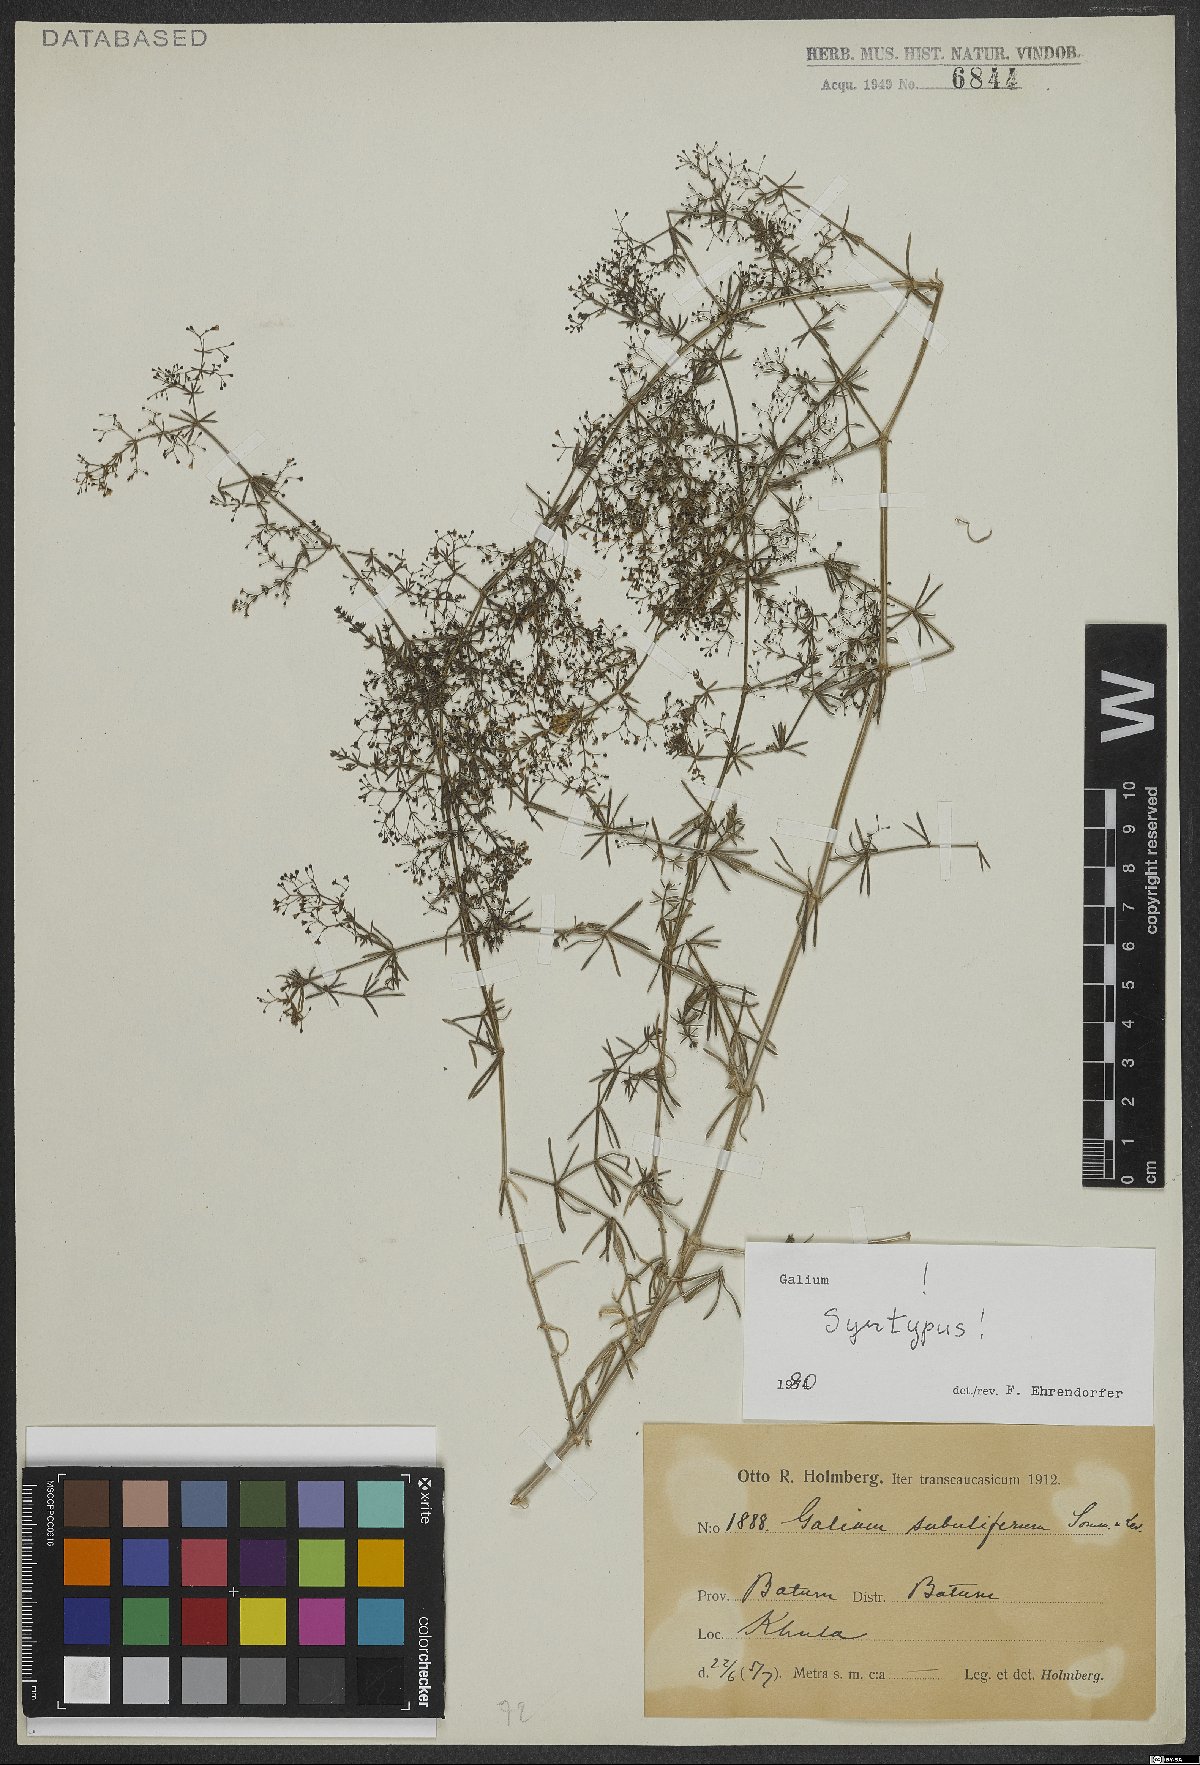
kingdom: Plantae
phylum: Tracheophyta
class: Magnoliopsida
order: Gentianales
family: Rubiaceae
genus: Galium
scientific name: Galium subuliferum
